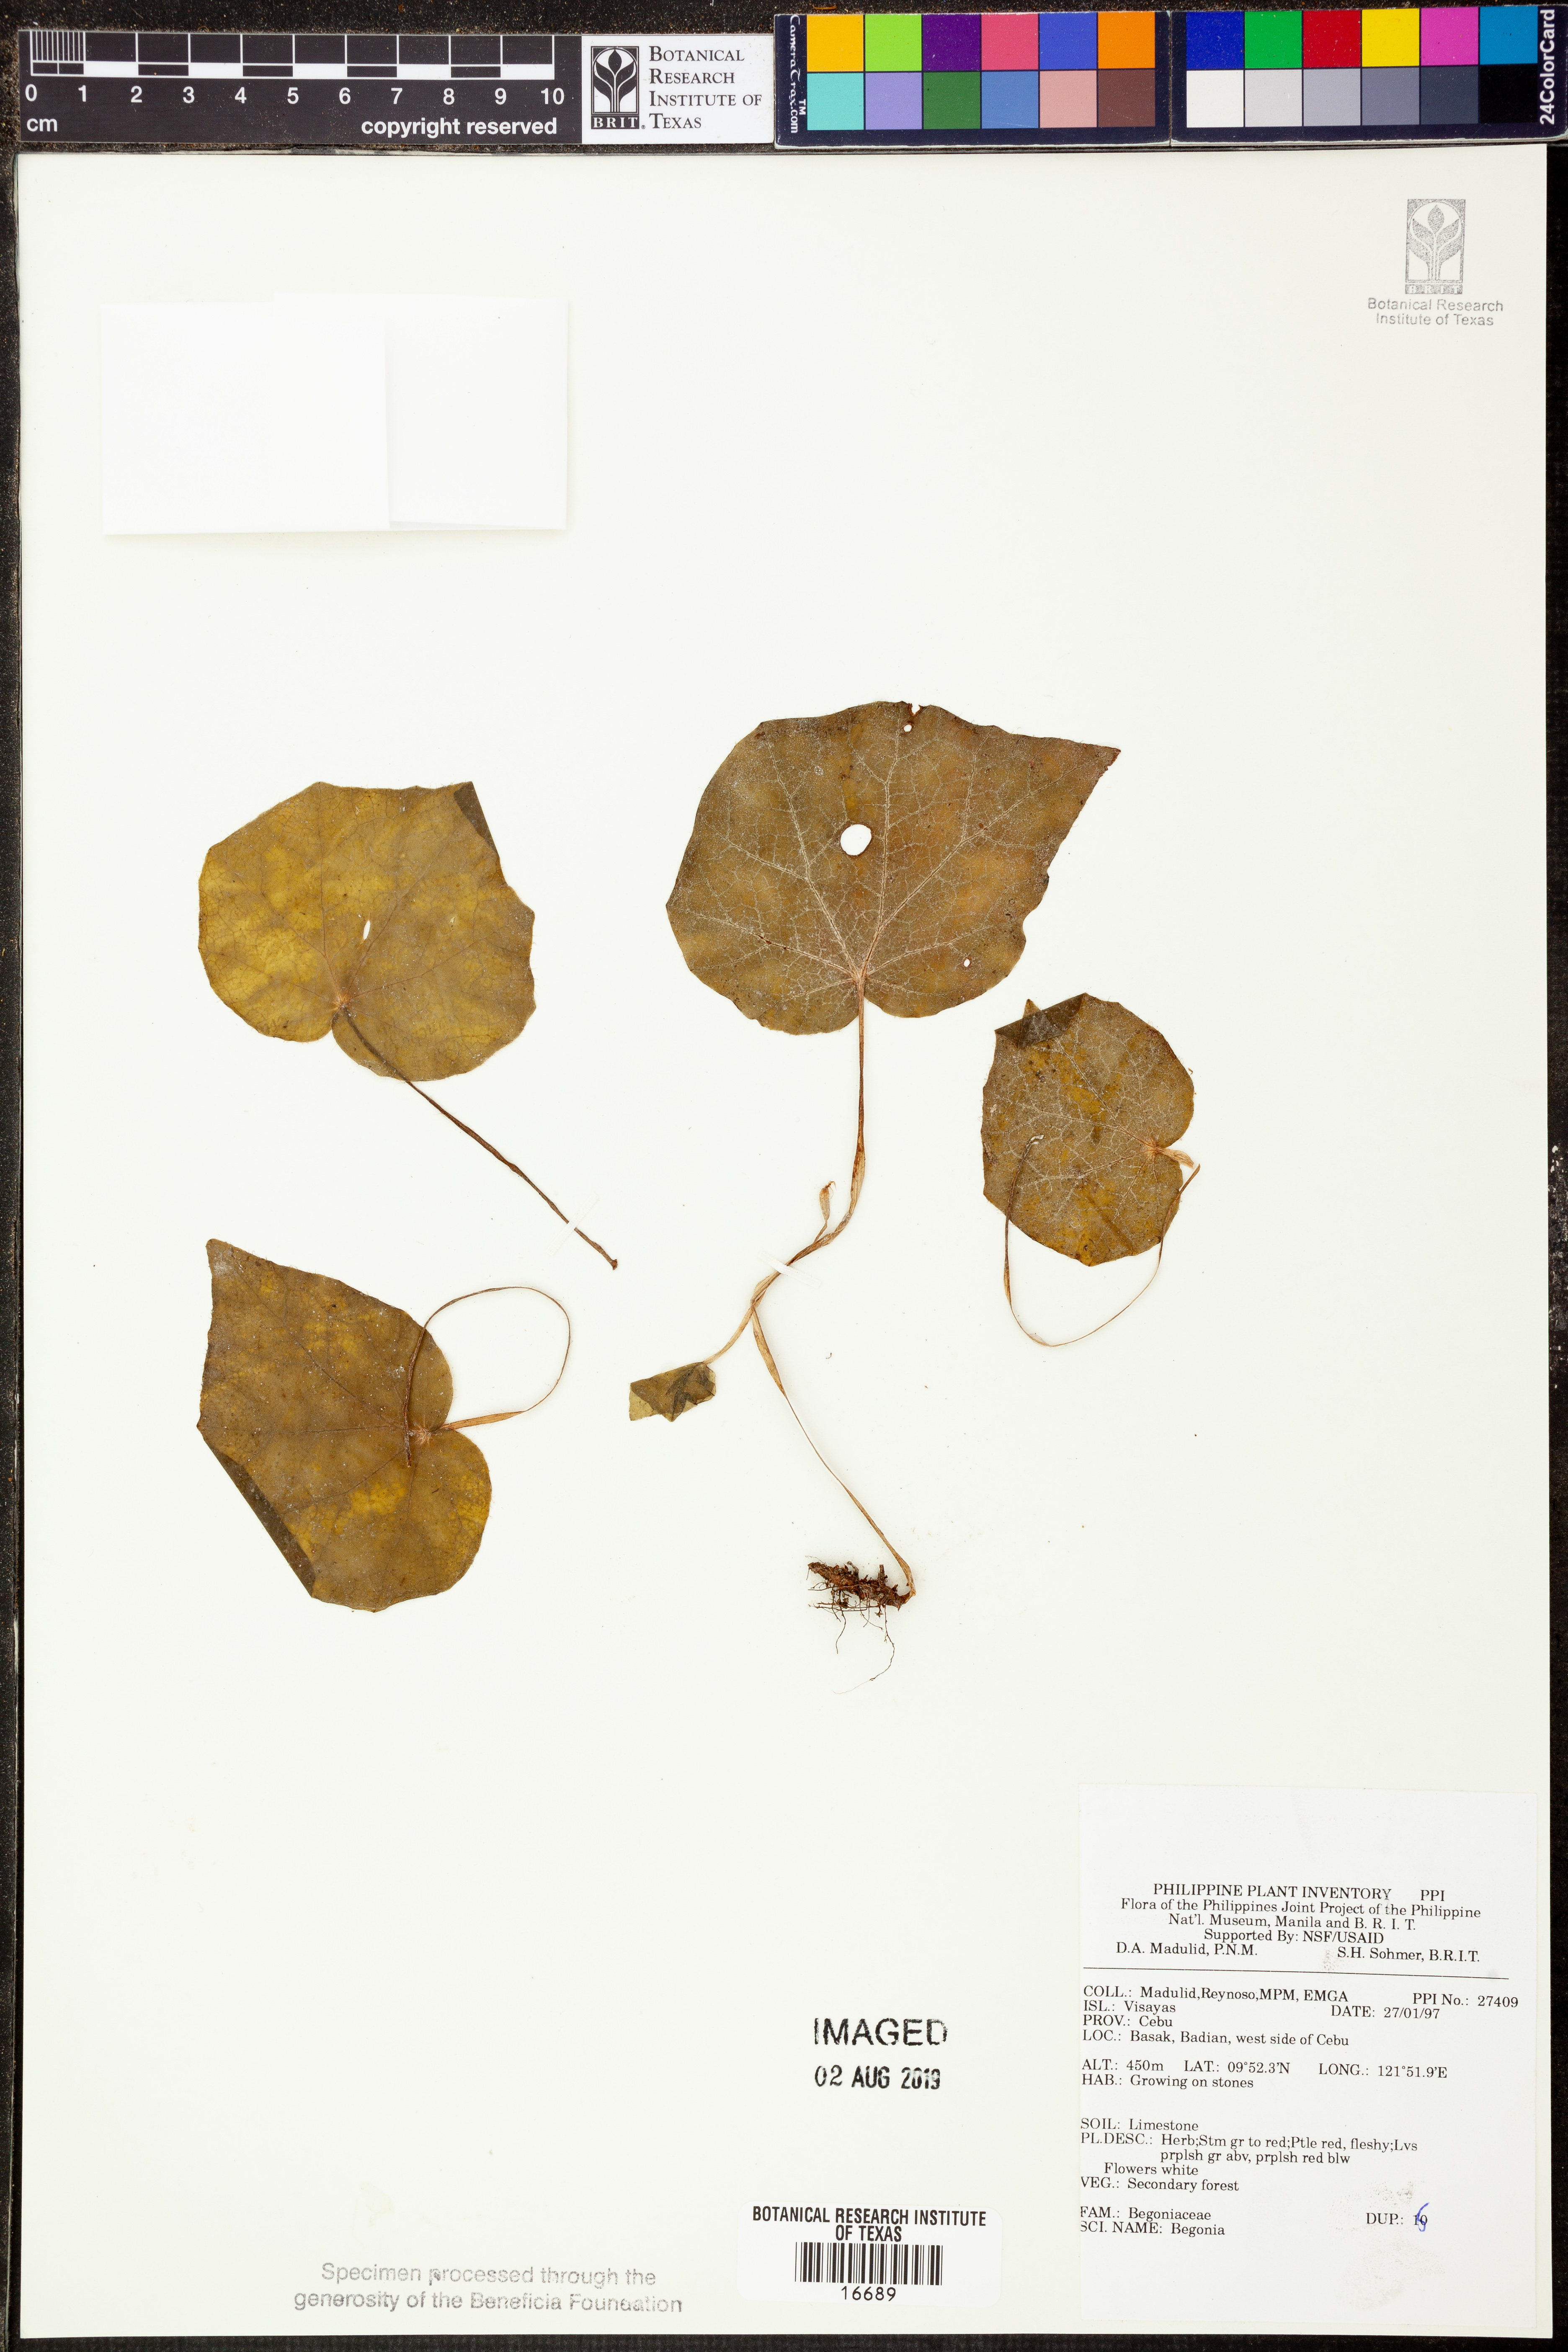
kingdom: Plantae
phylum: Tracheophyta
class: Magnoliopsida
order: Cucurbitales
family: Begoniaceae
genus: Begonia
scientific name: Begonia
